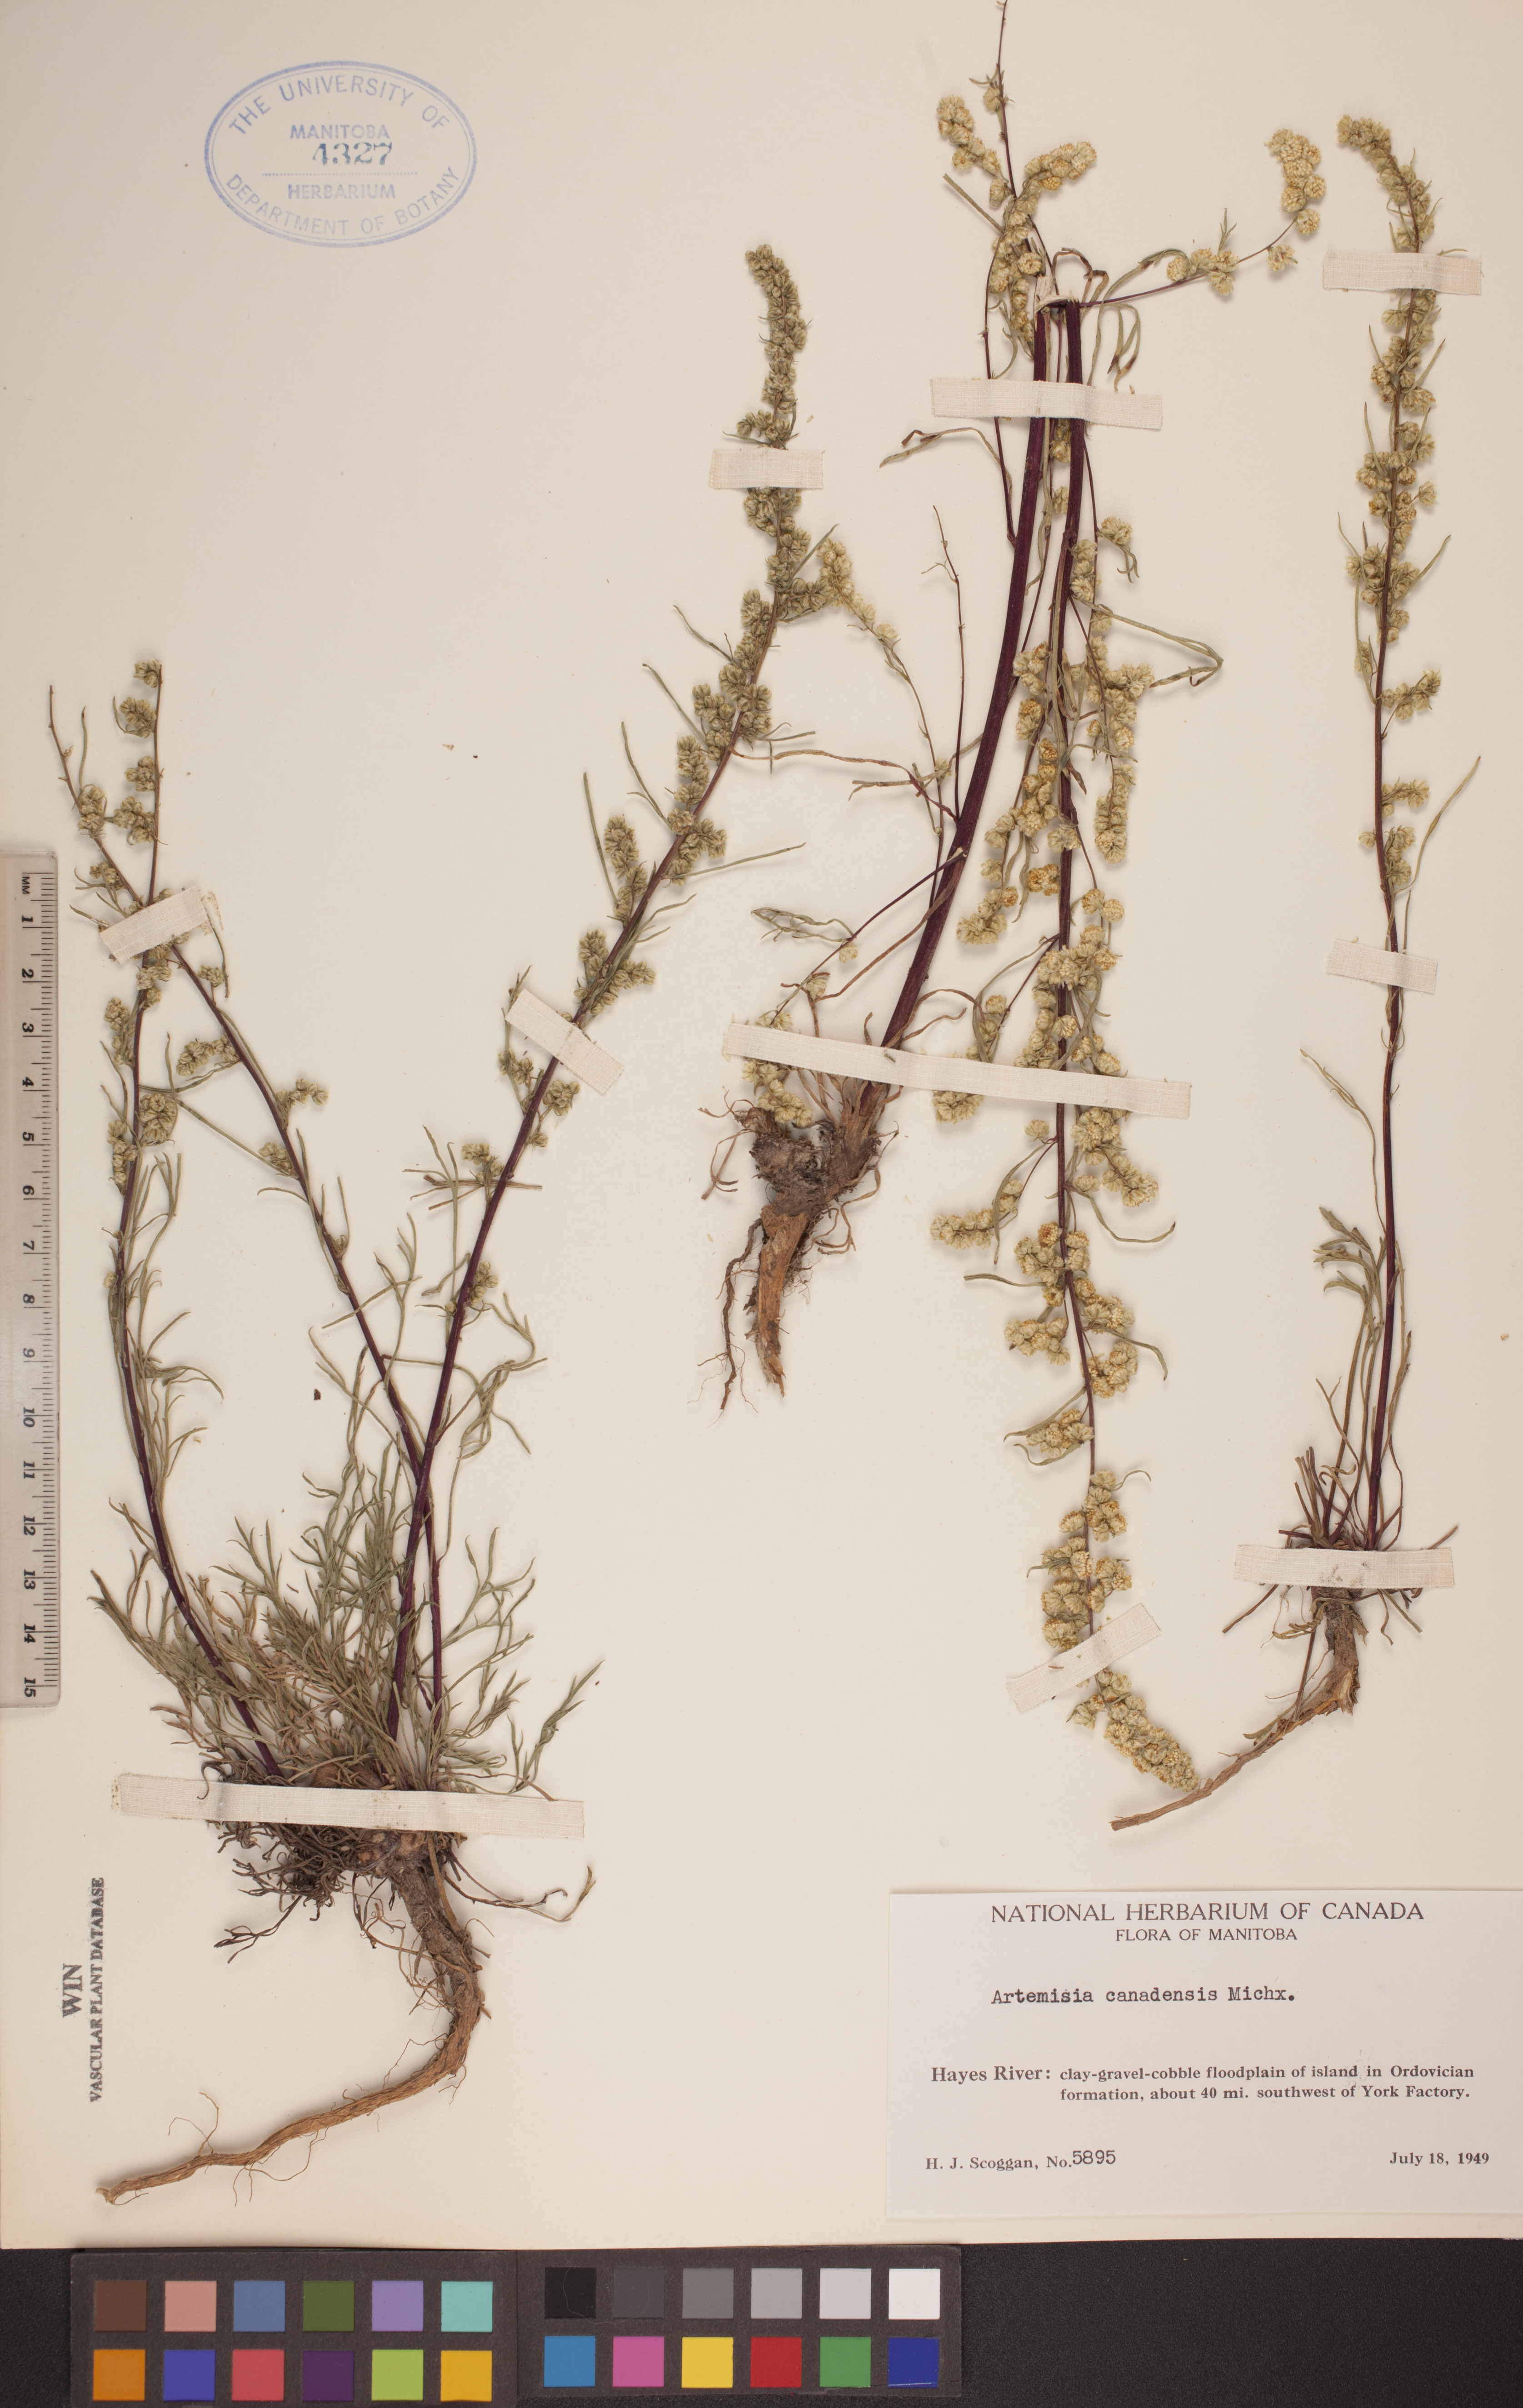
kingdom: Plantae
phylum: Tracheophyta
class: Magnoliopsida
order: Asterales
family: Asteraceae
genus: Artemisia
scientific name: Artemisia campestris
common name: Field wormwood
